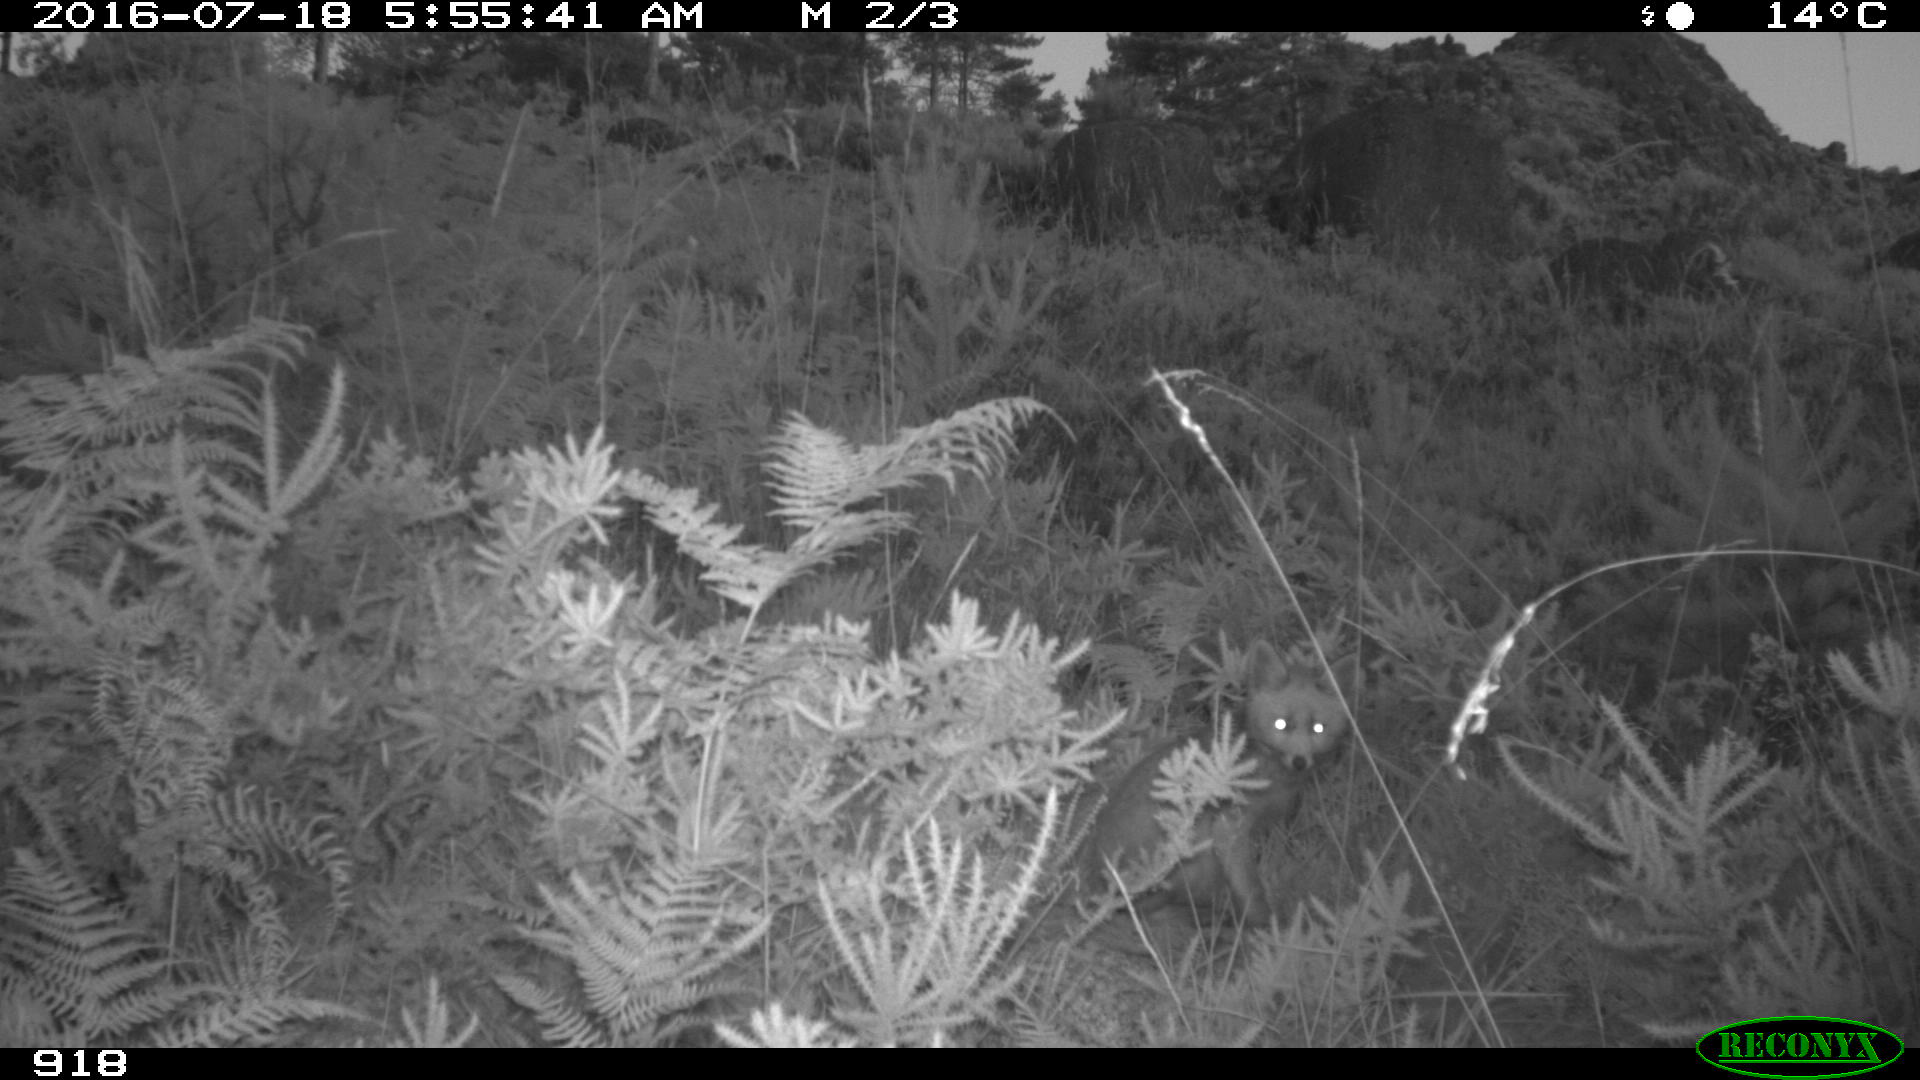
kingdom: Animalia
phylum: Chordata
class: Mammalia
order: Carnivora
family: Canidae
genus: Vulpes
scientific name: Vulpes vulpes
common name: Red fox
